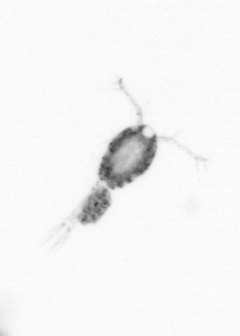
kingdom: Animalia
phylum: Arthropoda
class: Copepoda
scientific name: Copepoda
